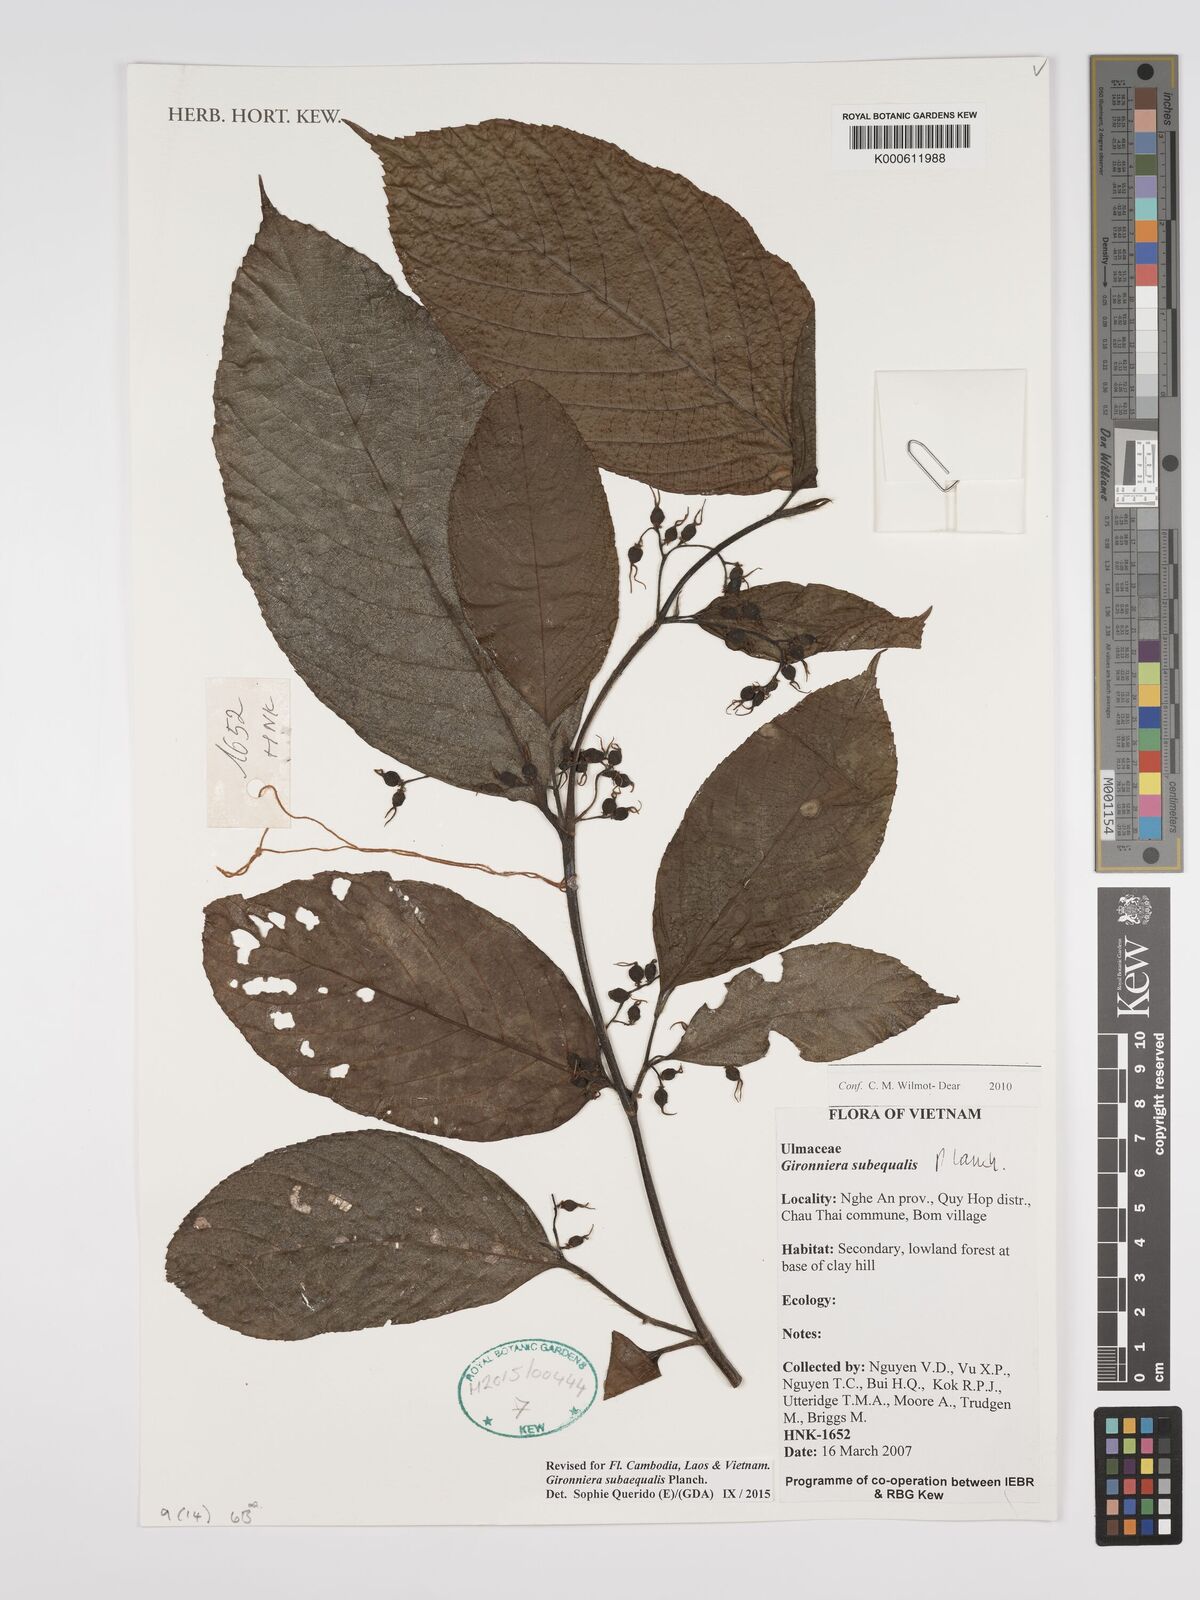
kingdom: Plantae
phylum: Tracheophyta
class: Magnoliopsida
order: Rosales
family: Cannabaceae
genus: Gironniera
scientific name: Gironniera subaequalis
